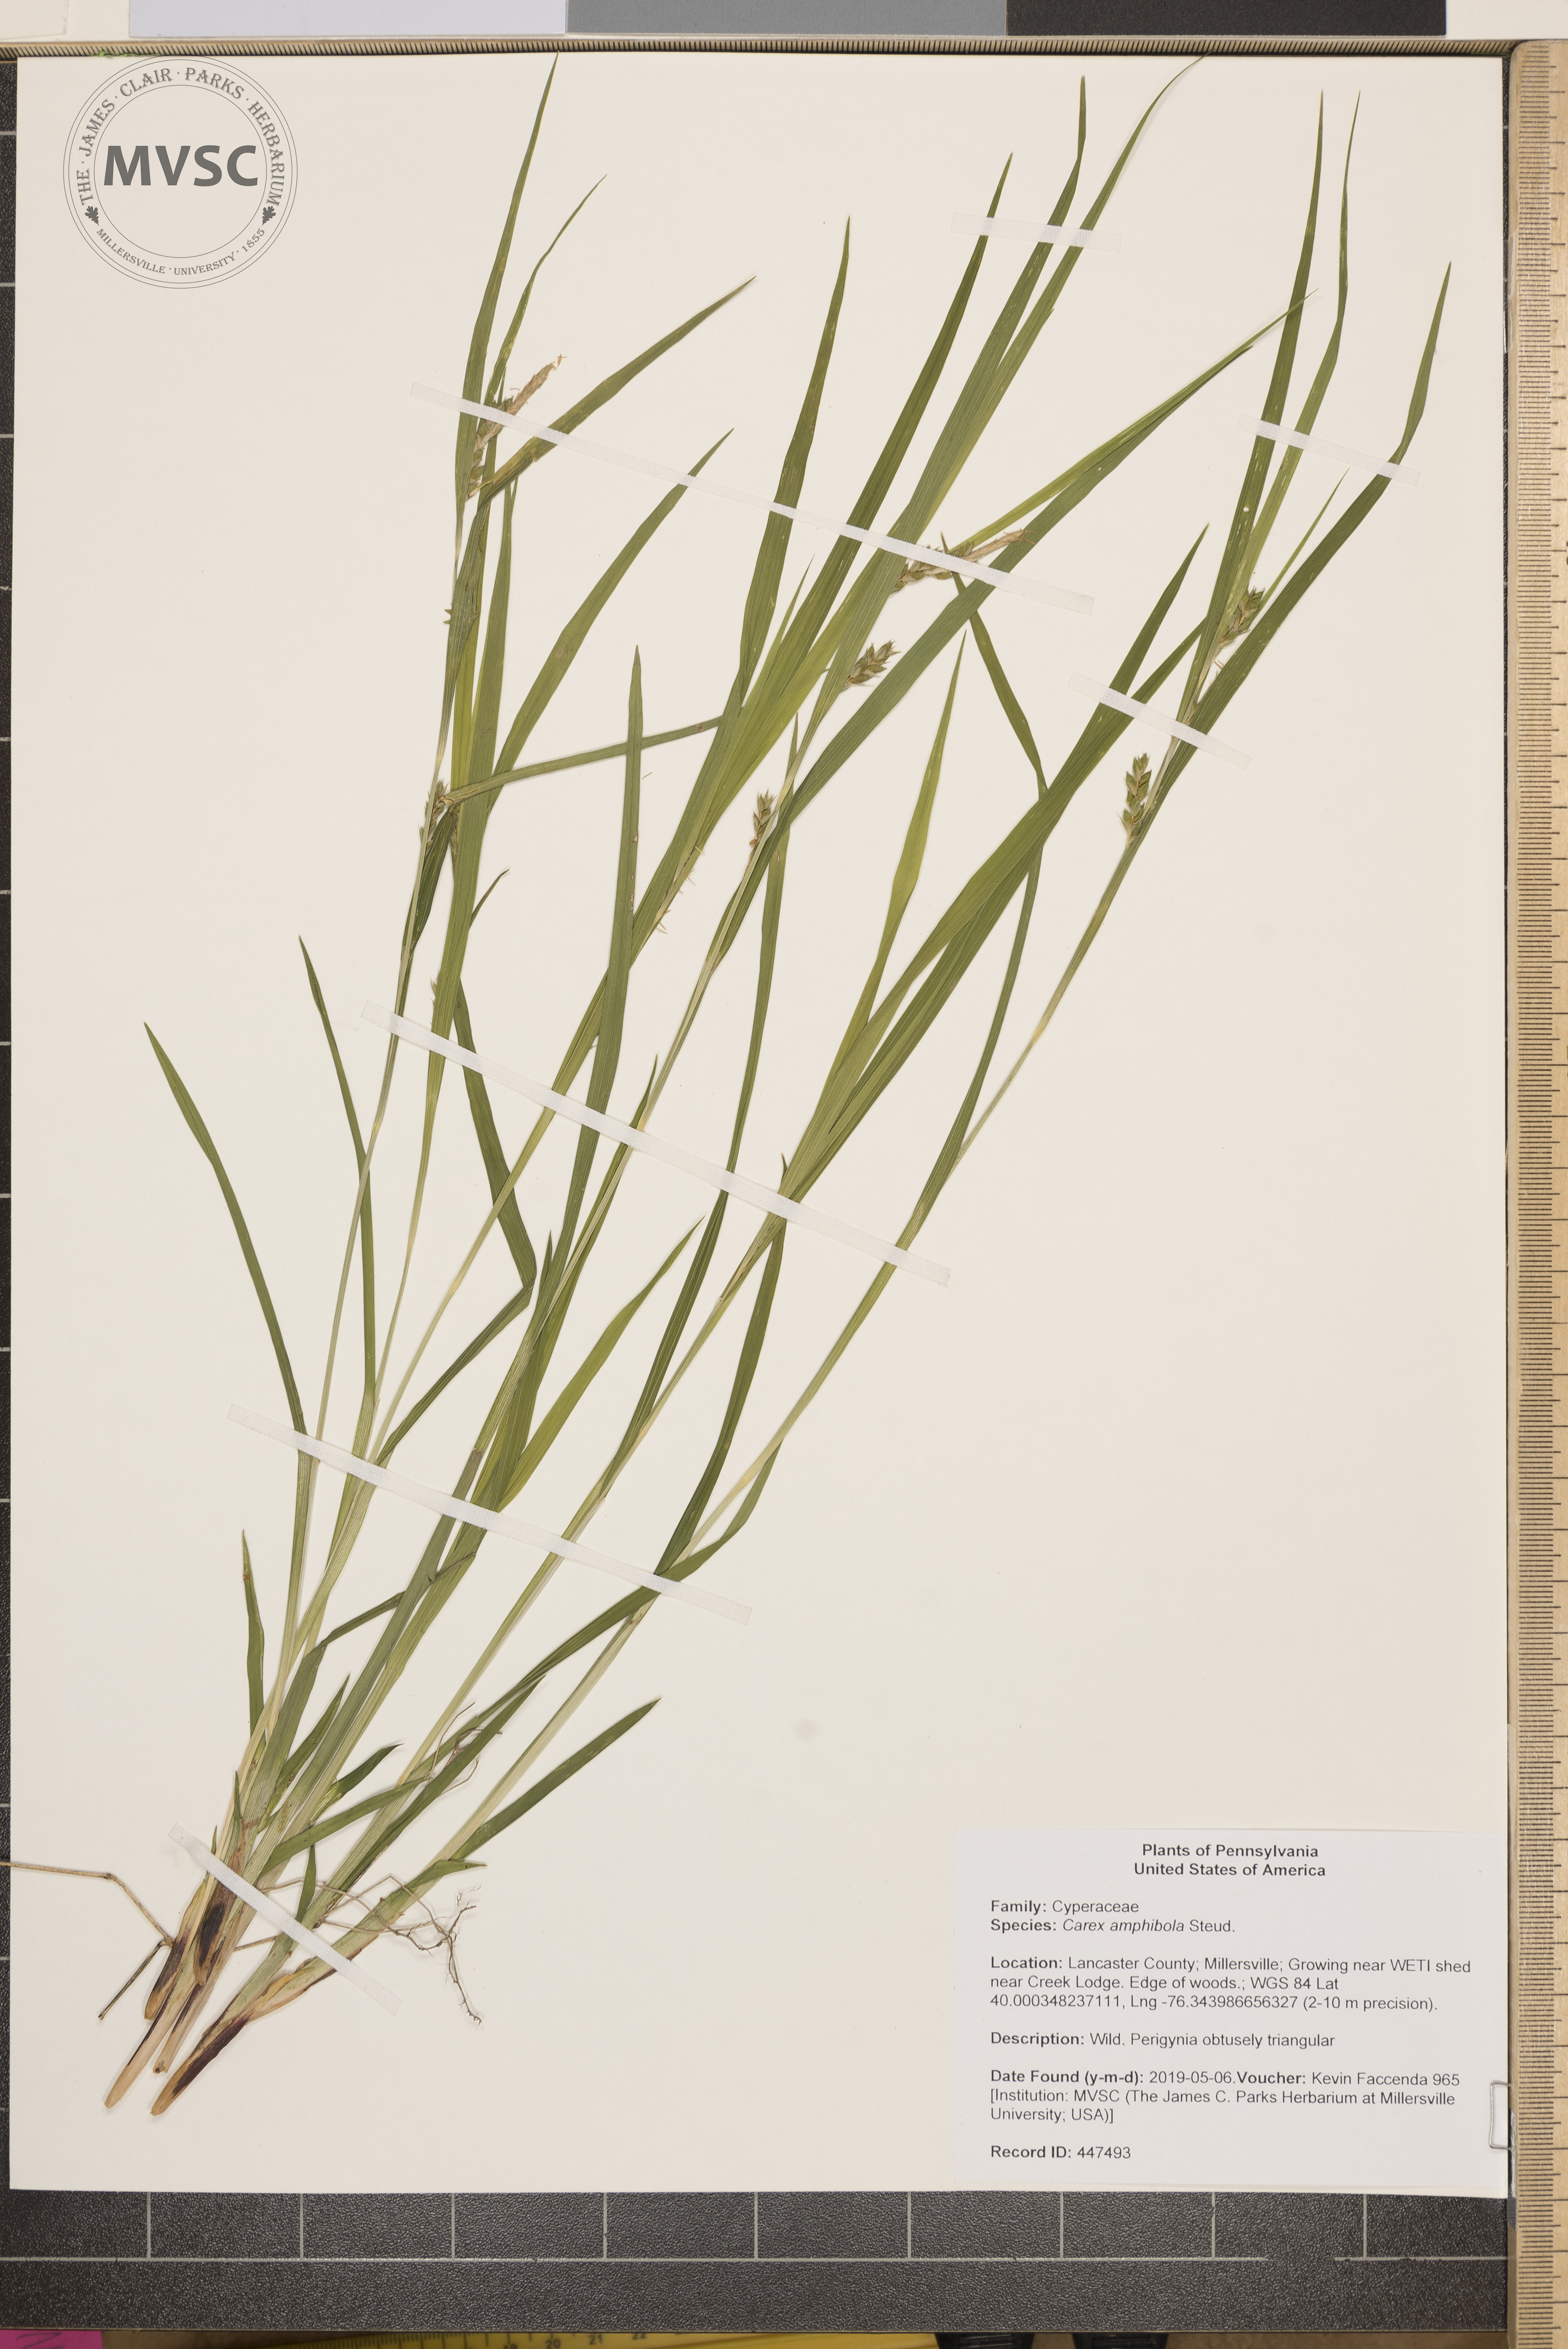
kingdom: Plantae
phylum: Tracheophyta
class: Liliopsida
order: Poales
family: Cyperaceae
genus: Carex
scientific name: Carex amphibola
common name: Amphibious sedge
